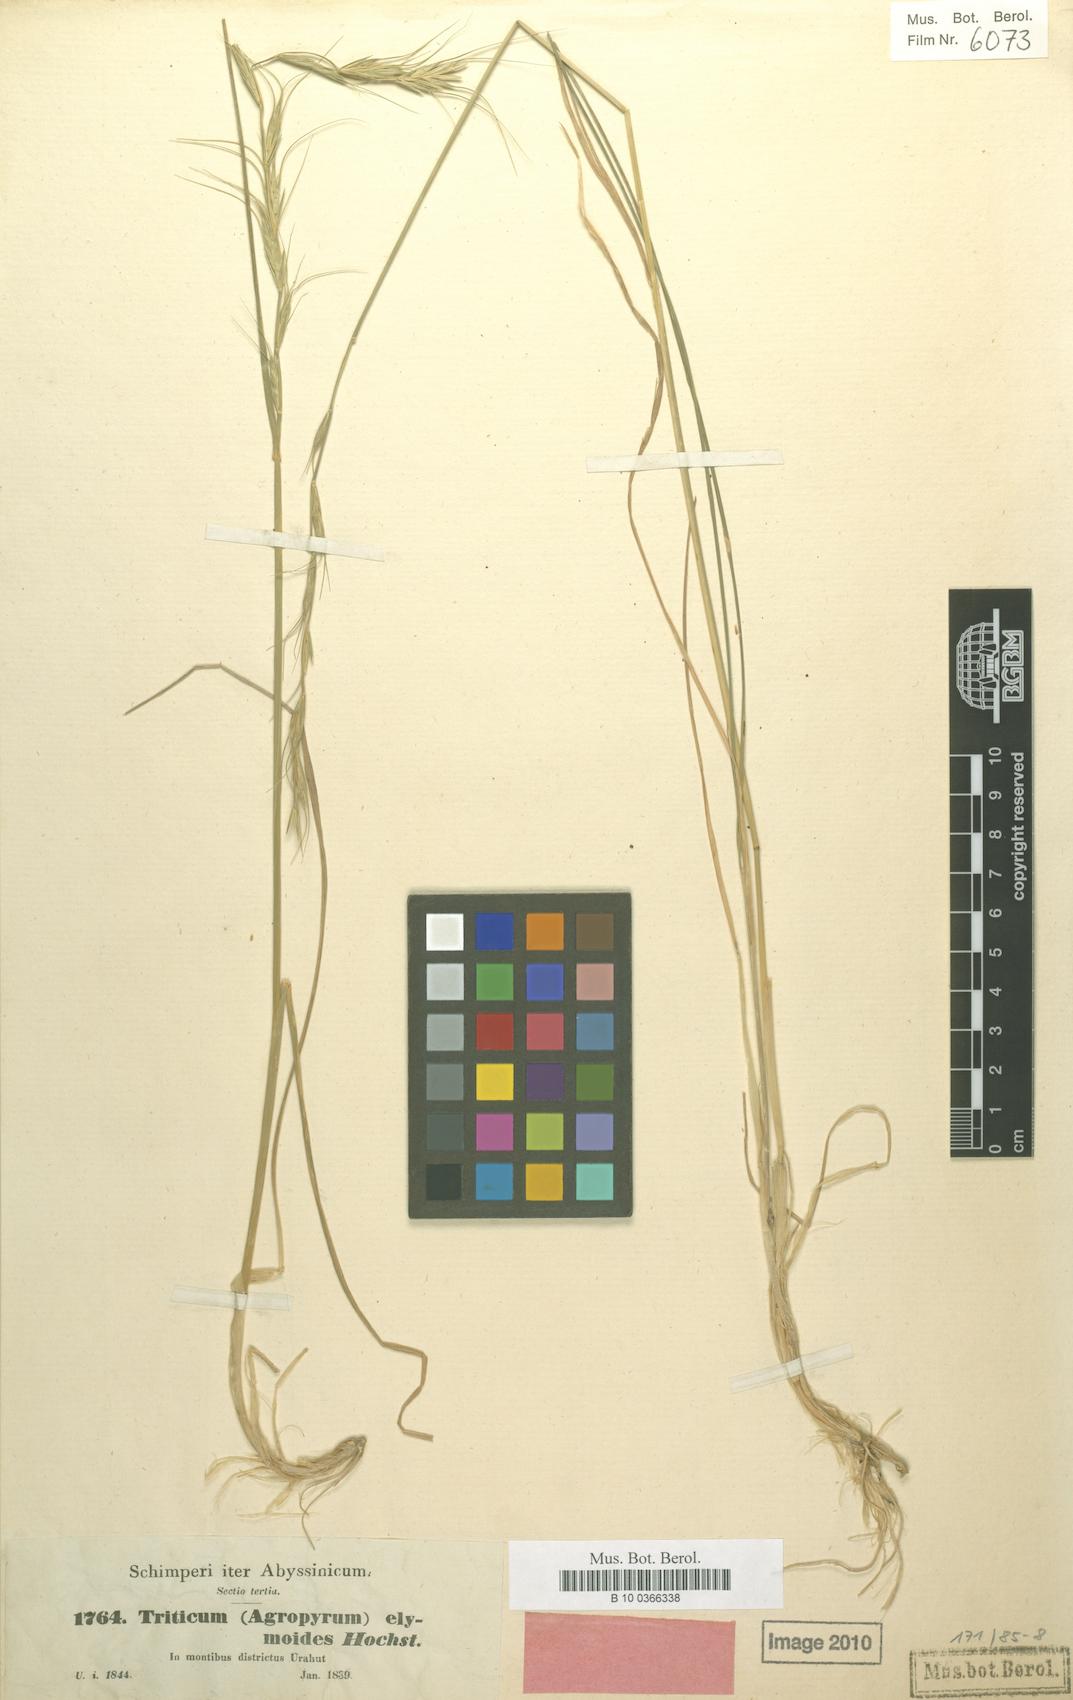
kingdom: Plantae
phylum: Tracheophyta
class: Liliopsida
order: Poales
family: Poaceae
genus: Elymus
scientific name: Elymus africanus
